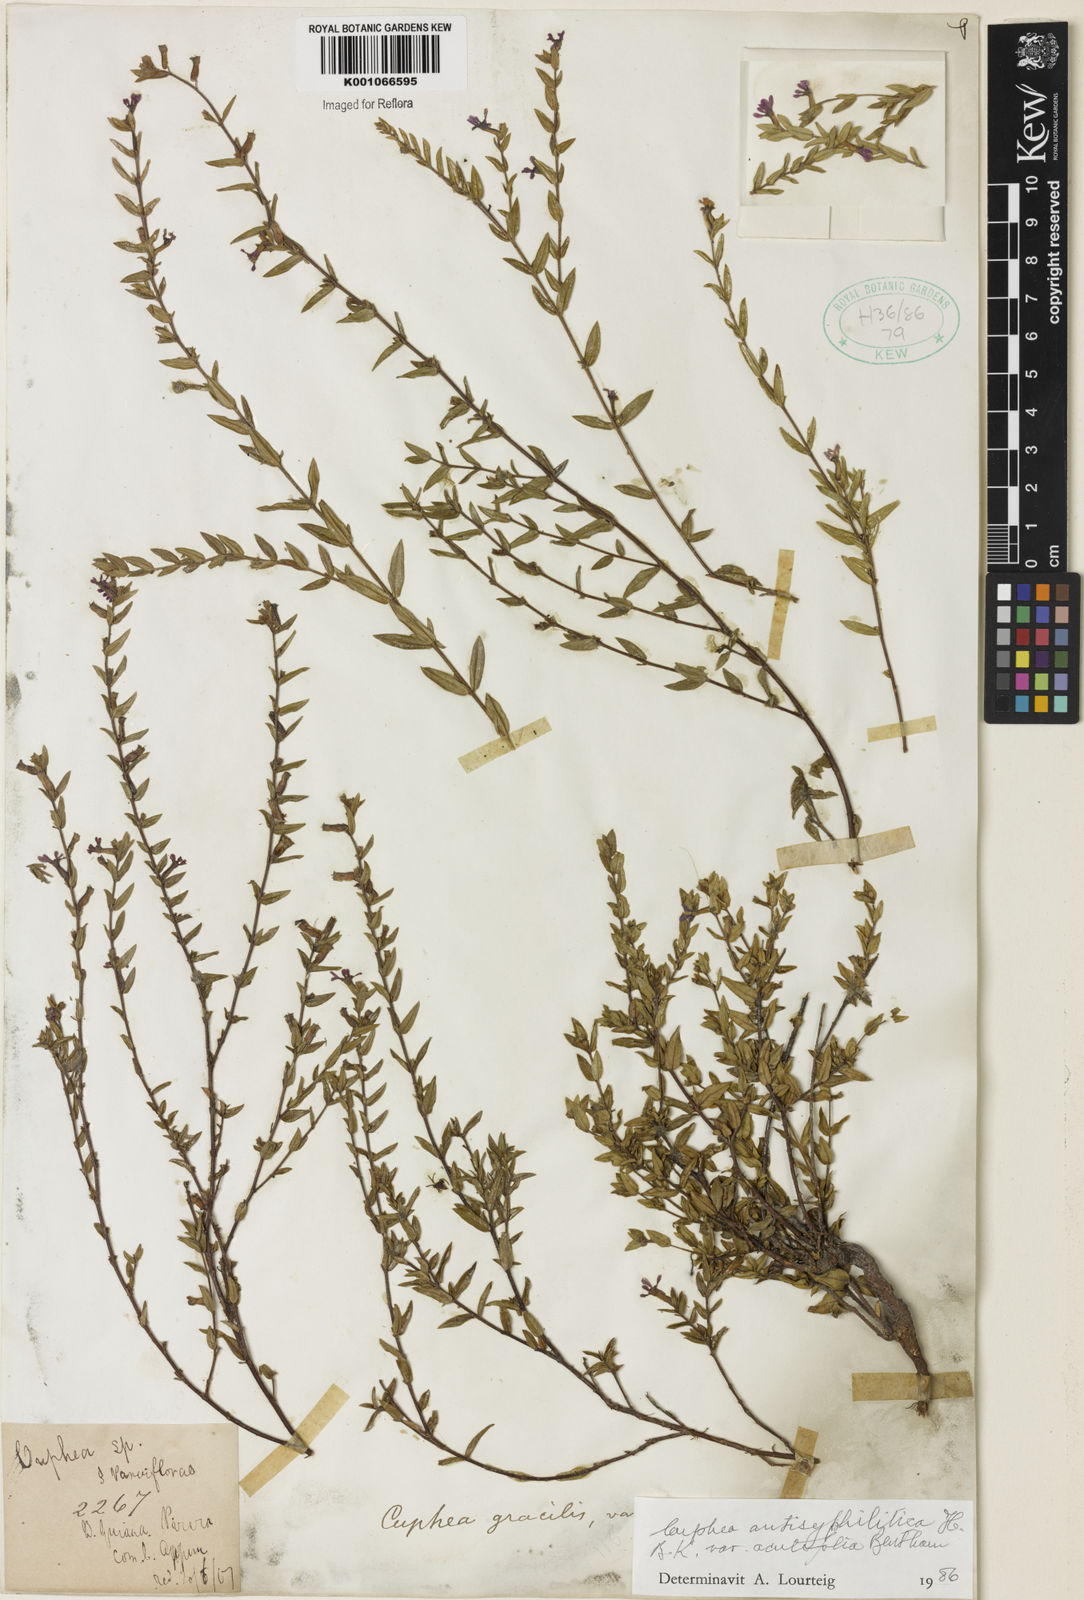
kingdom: Plantae
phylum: Tracheophyta
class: Magnoliopsida
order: Myrtales
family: Lythraceae
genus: Cuphea
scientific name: Cuphea antisyphilitica
